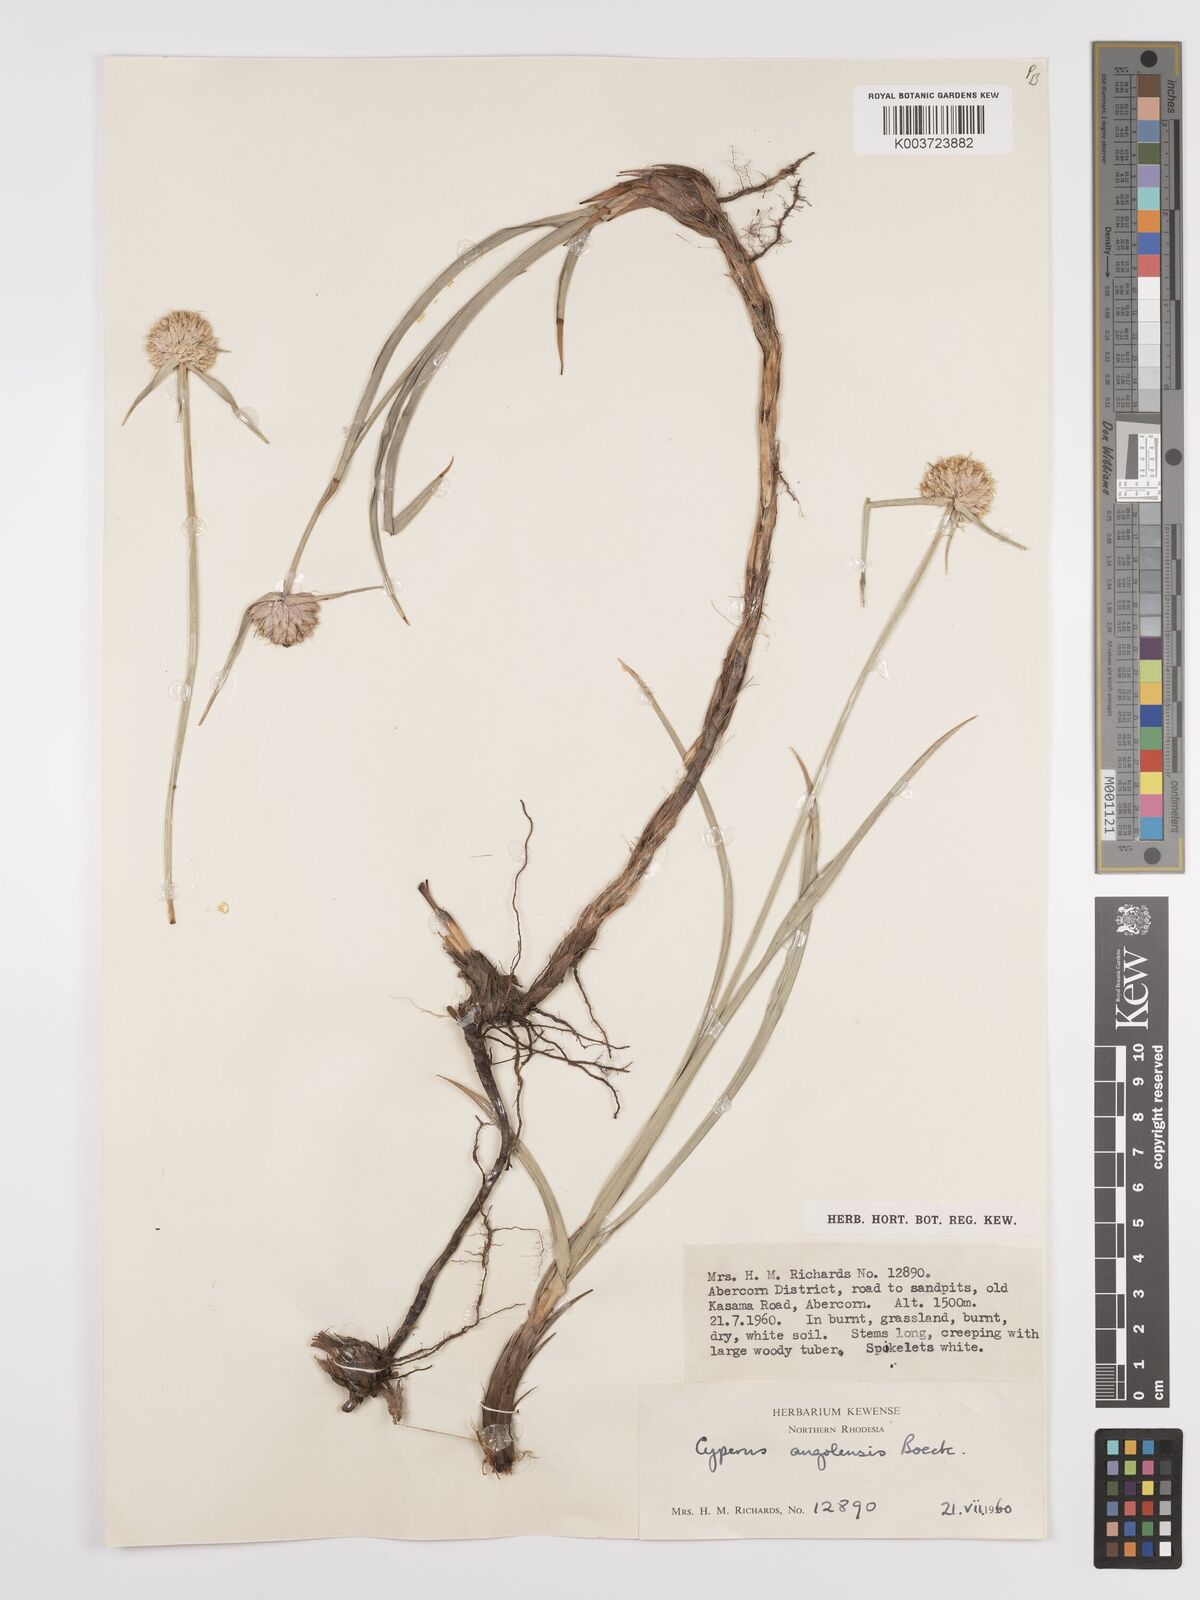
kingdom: Plantae
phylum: Tracheophyta
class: Liliopsida
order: Poales
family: Cyperaceae
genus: Cyperus
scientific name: Cyperus angolensis
